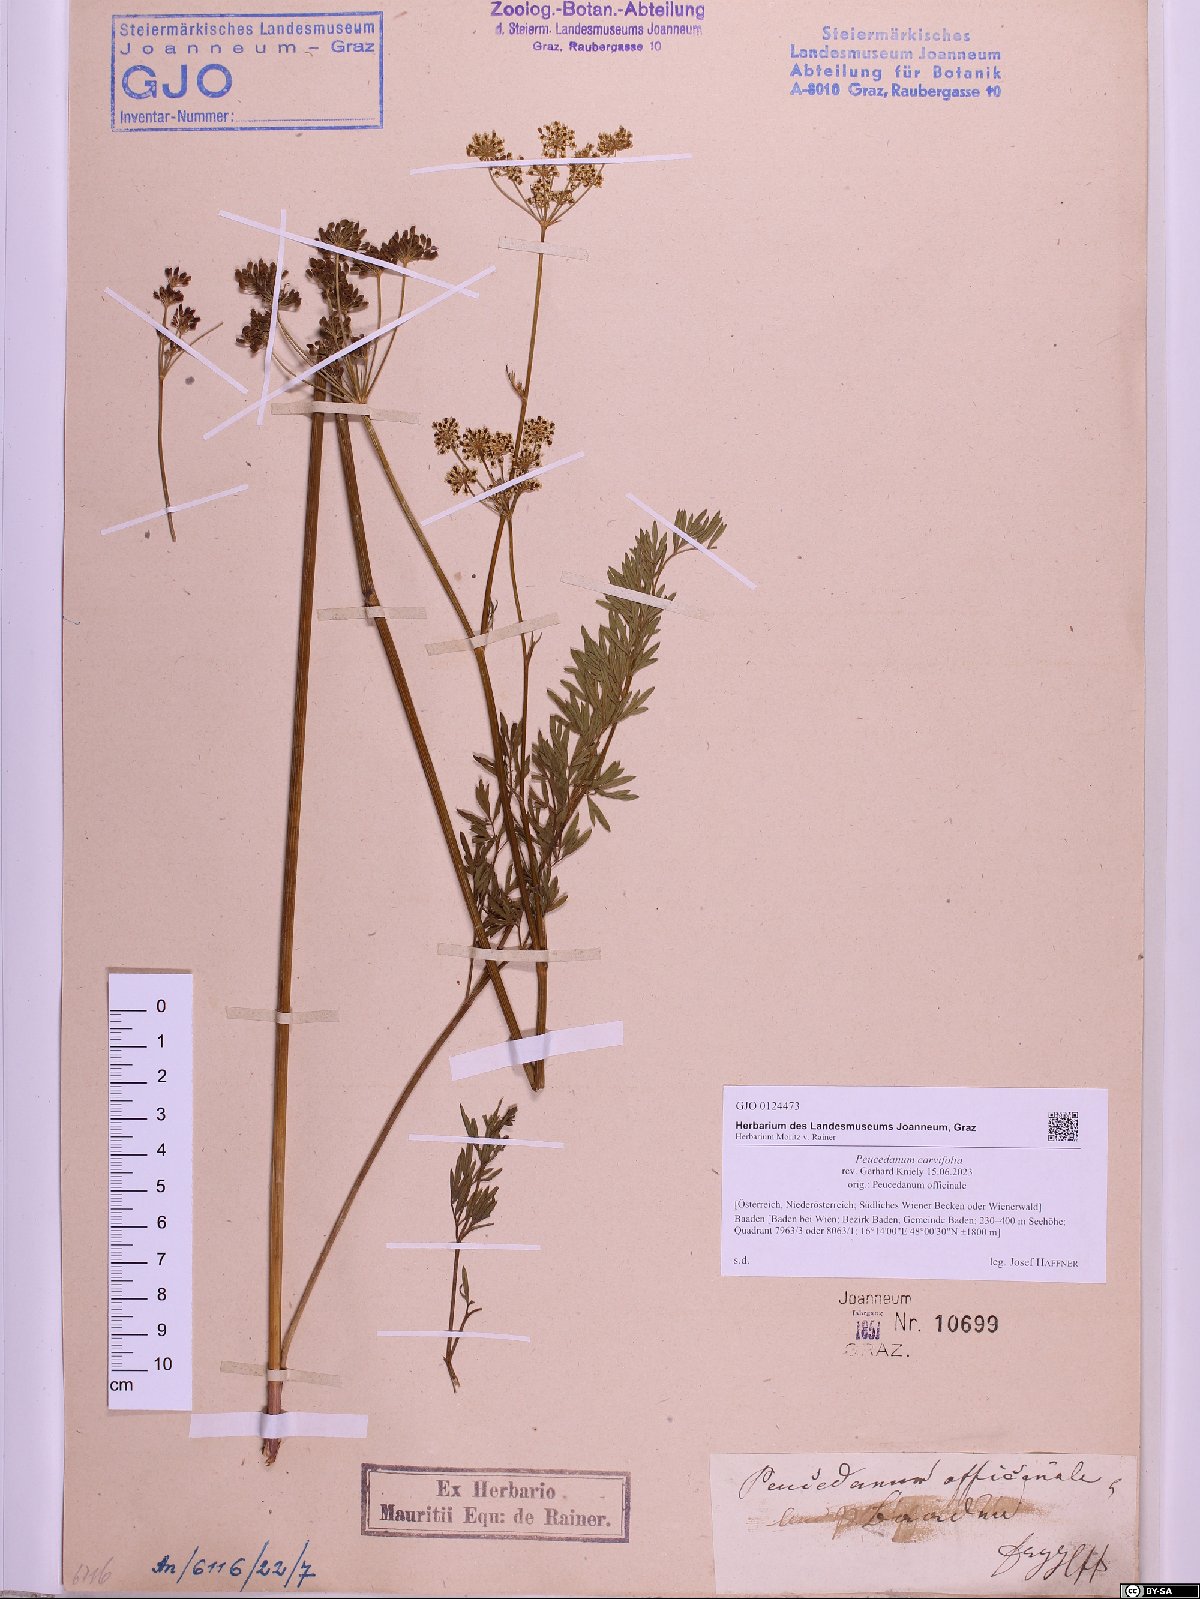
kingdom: Plantae
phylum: Tracheophyta
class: Magnoliopsida
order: Apiales
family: Apiaceae
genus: Dichoropetalum
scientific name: Dichoropetalum carvifolia
